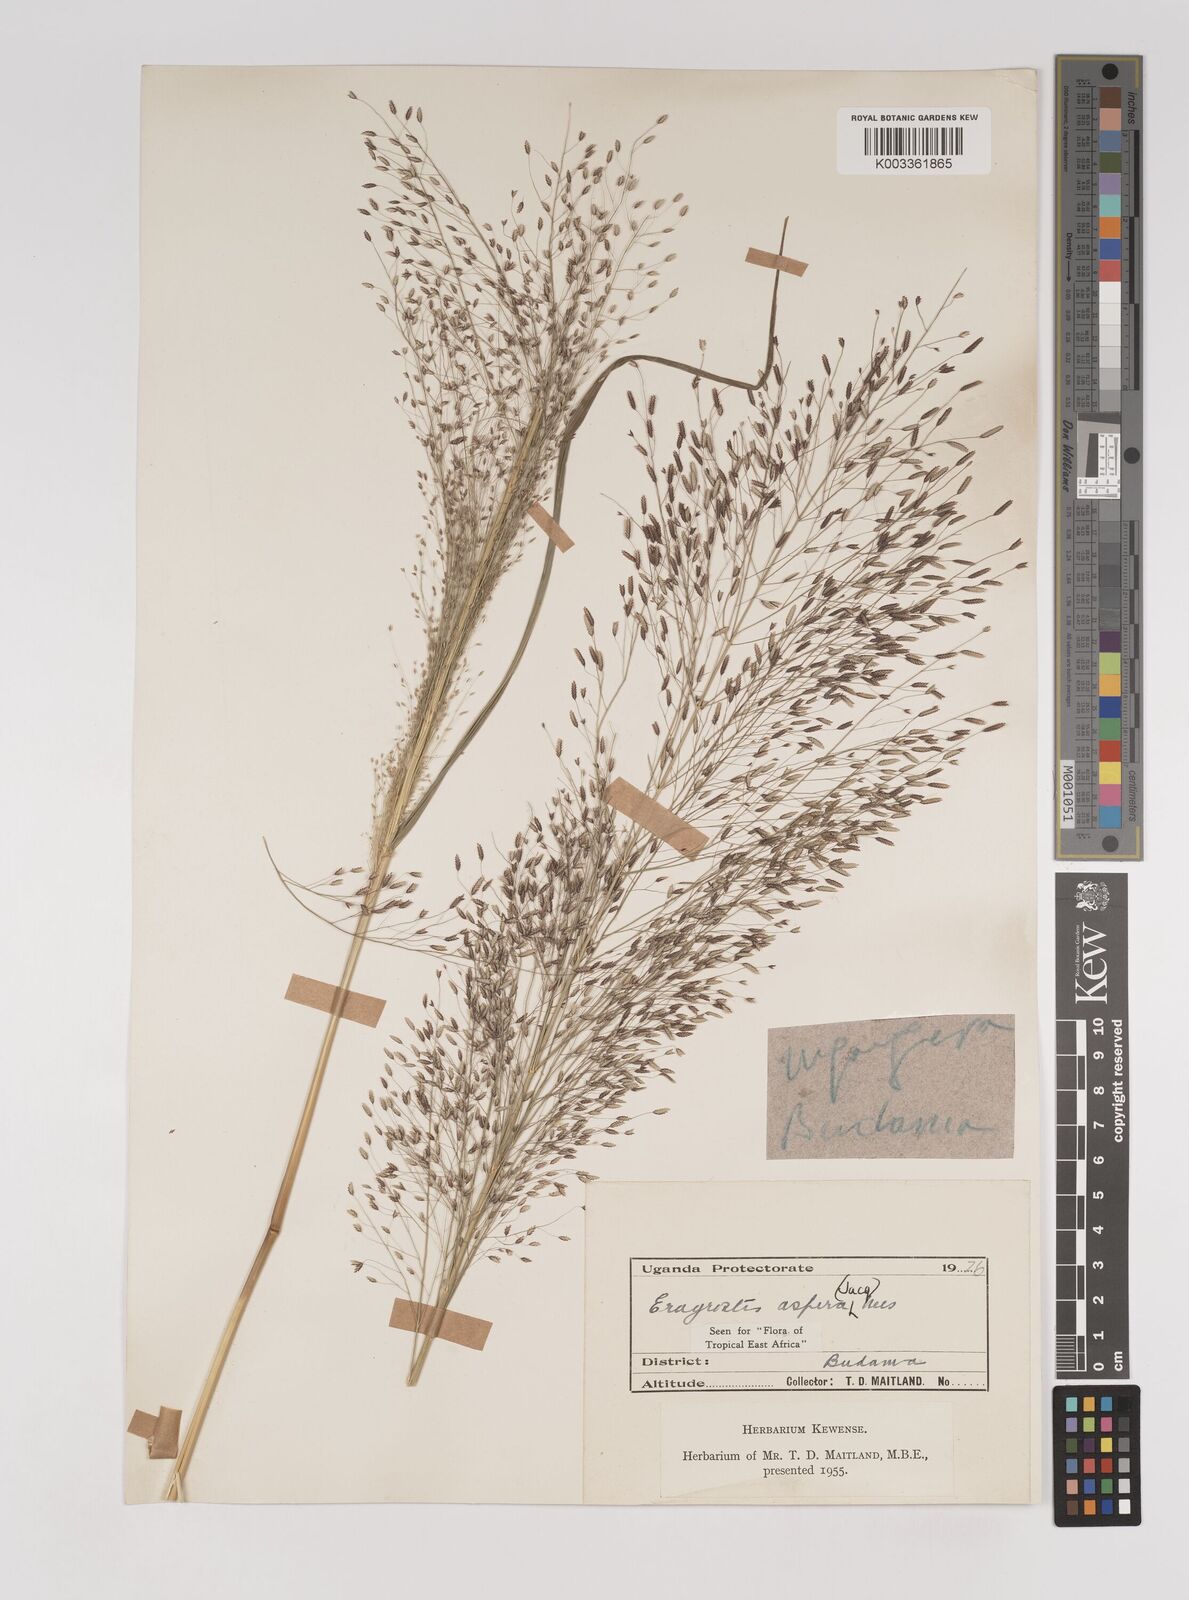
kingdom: Plantae
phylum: Tracheophyta
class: Liliopsida
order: Poales
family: Poaceae
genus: Eragrostis
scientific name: Eragrostis aspera
